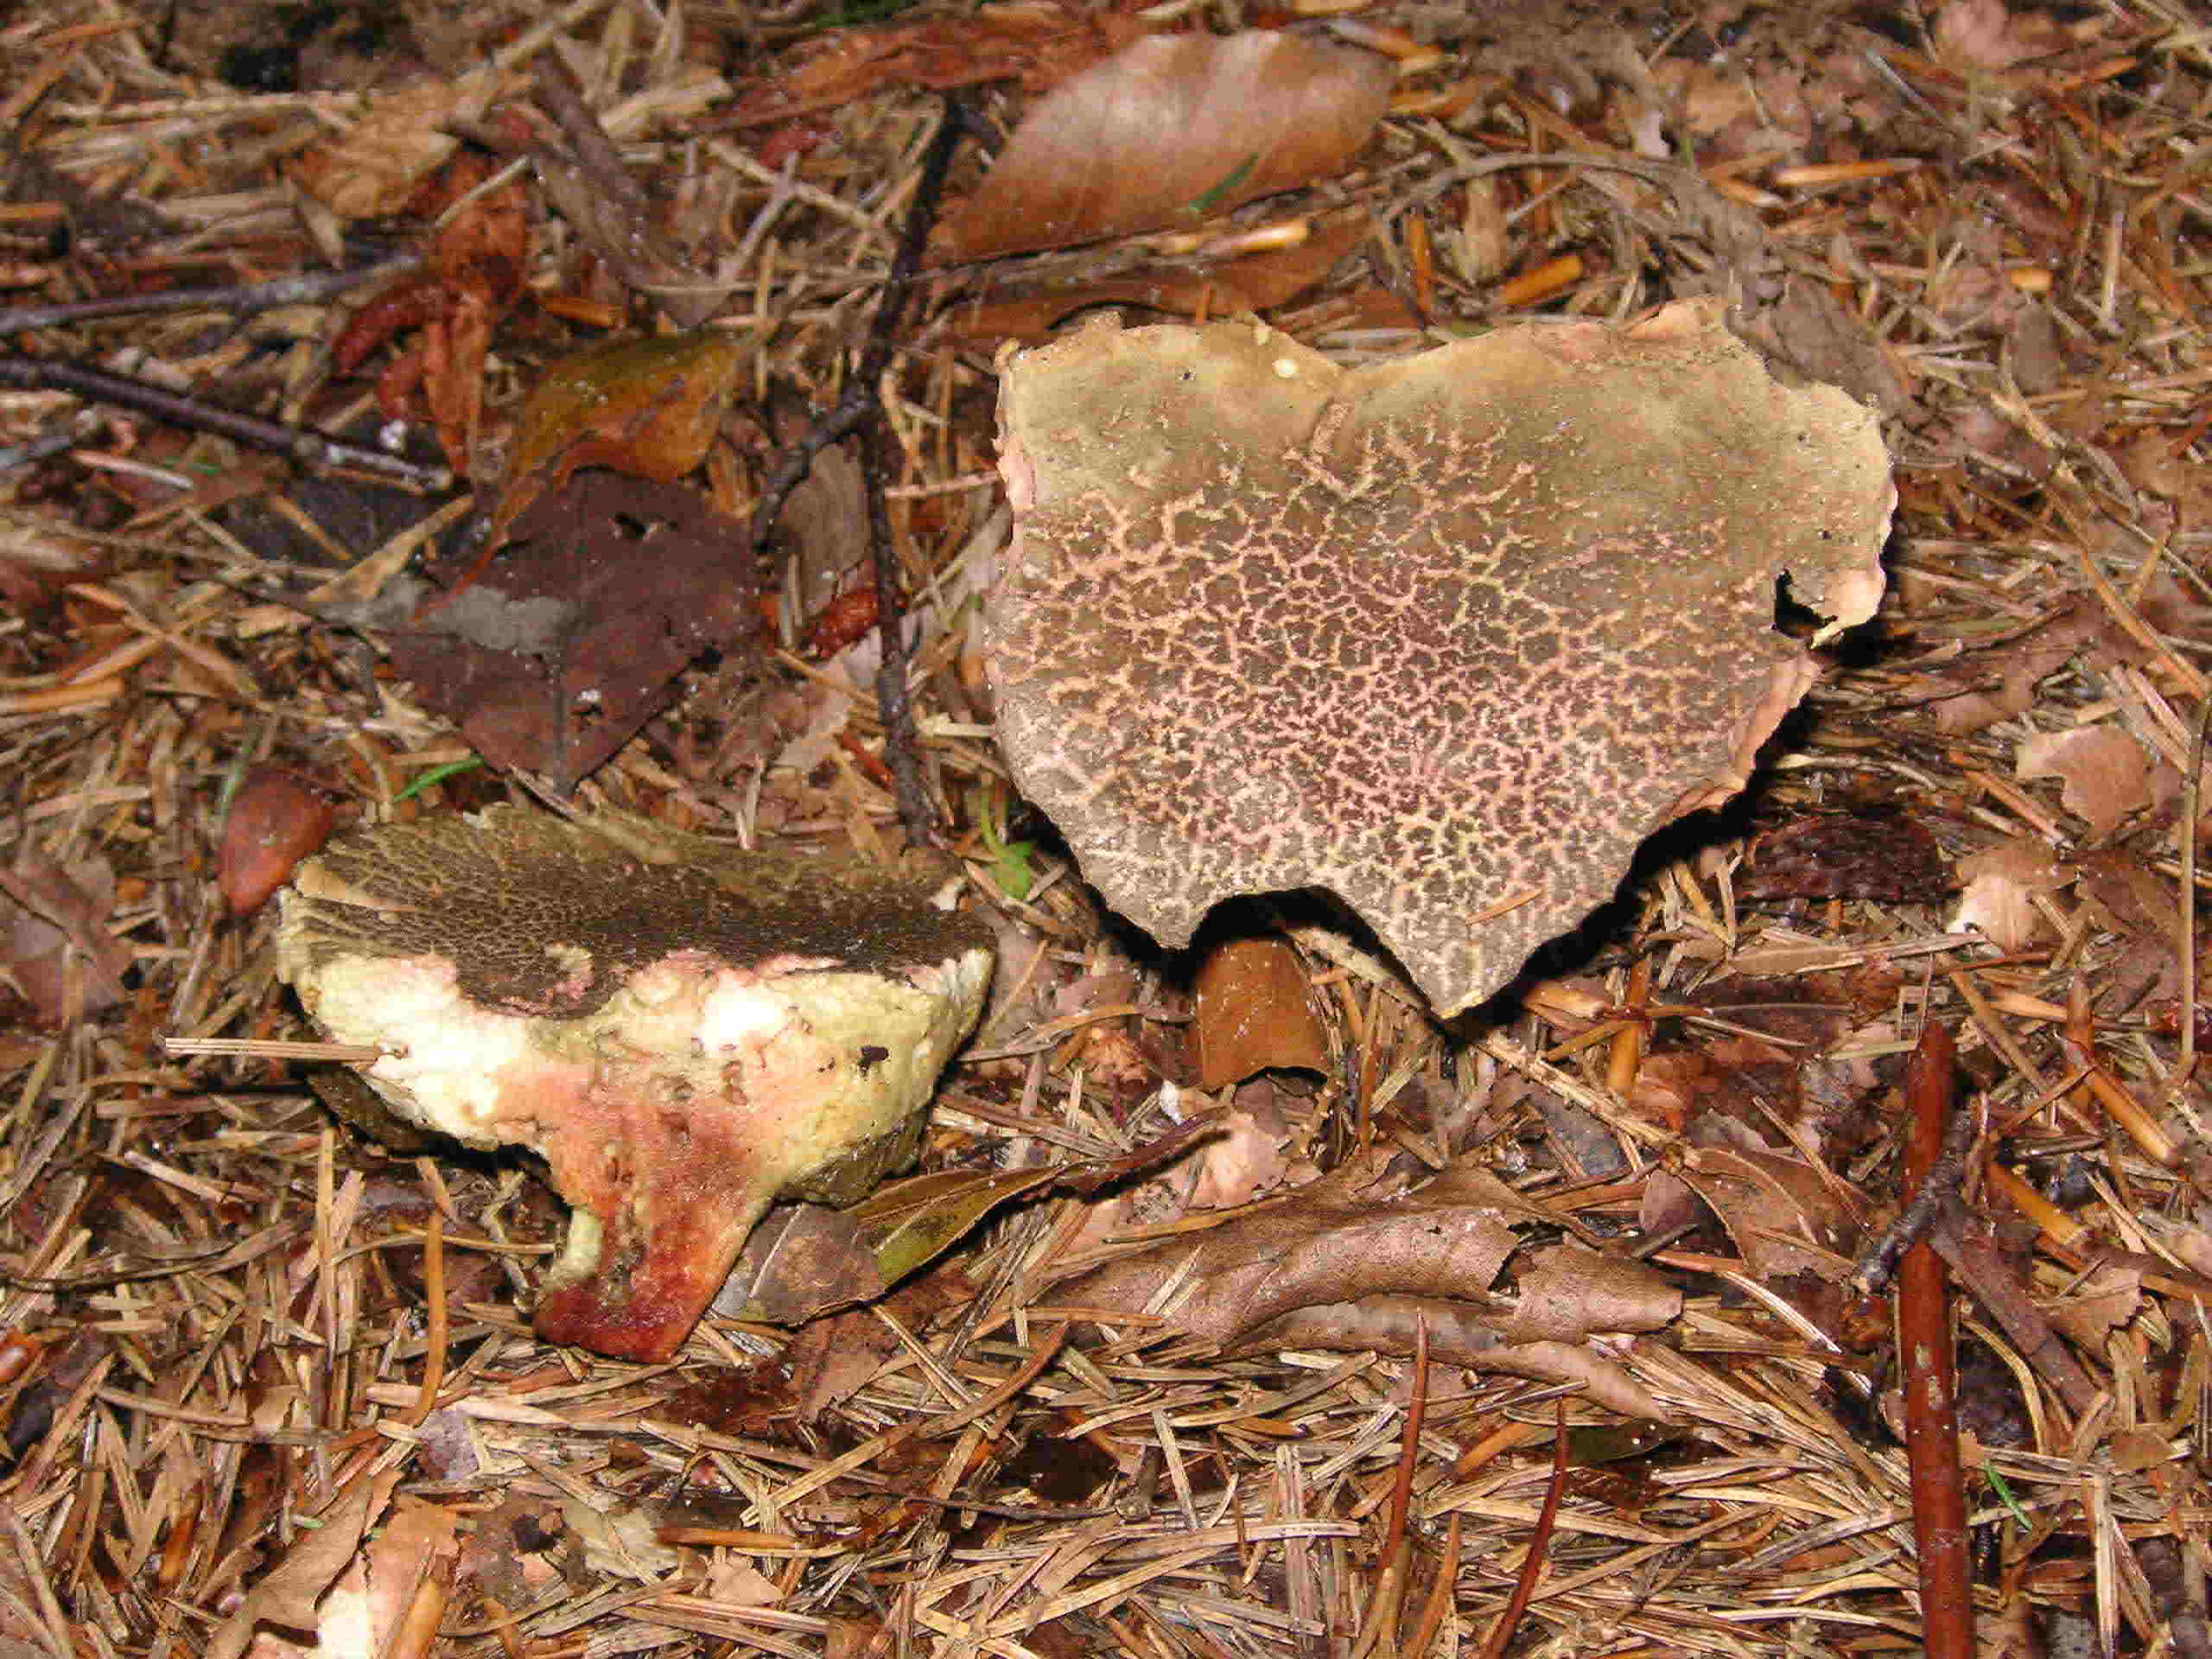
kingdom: Fungi
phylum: Basidiomycota
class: Agaricomycetes
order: Boletales
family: Boletaceae
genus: Xerocomellus
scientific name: Xerocomellus chrysenteron
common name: rødsprukken rørhat
